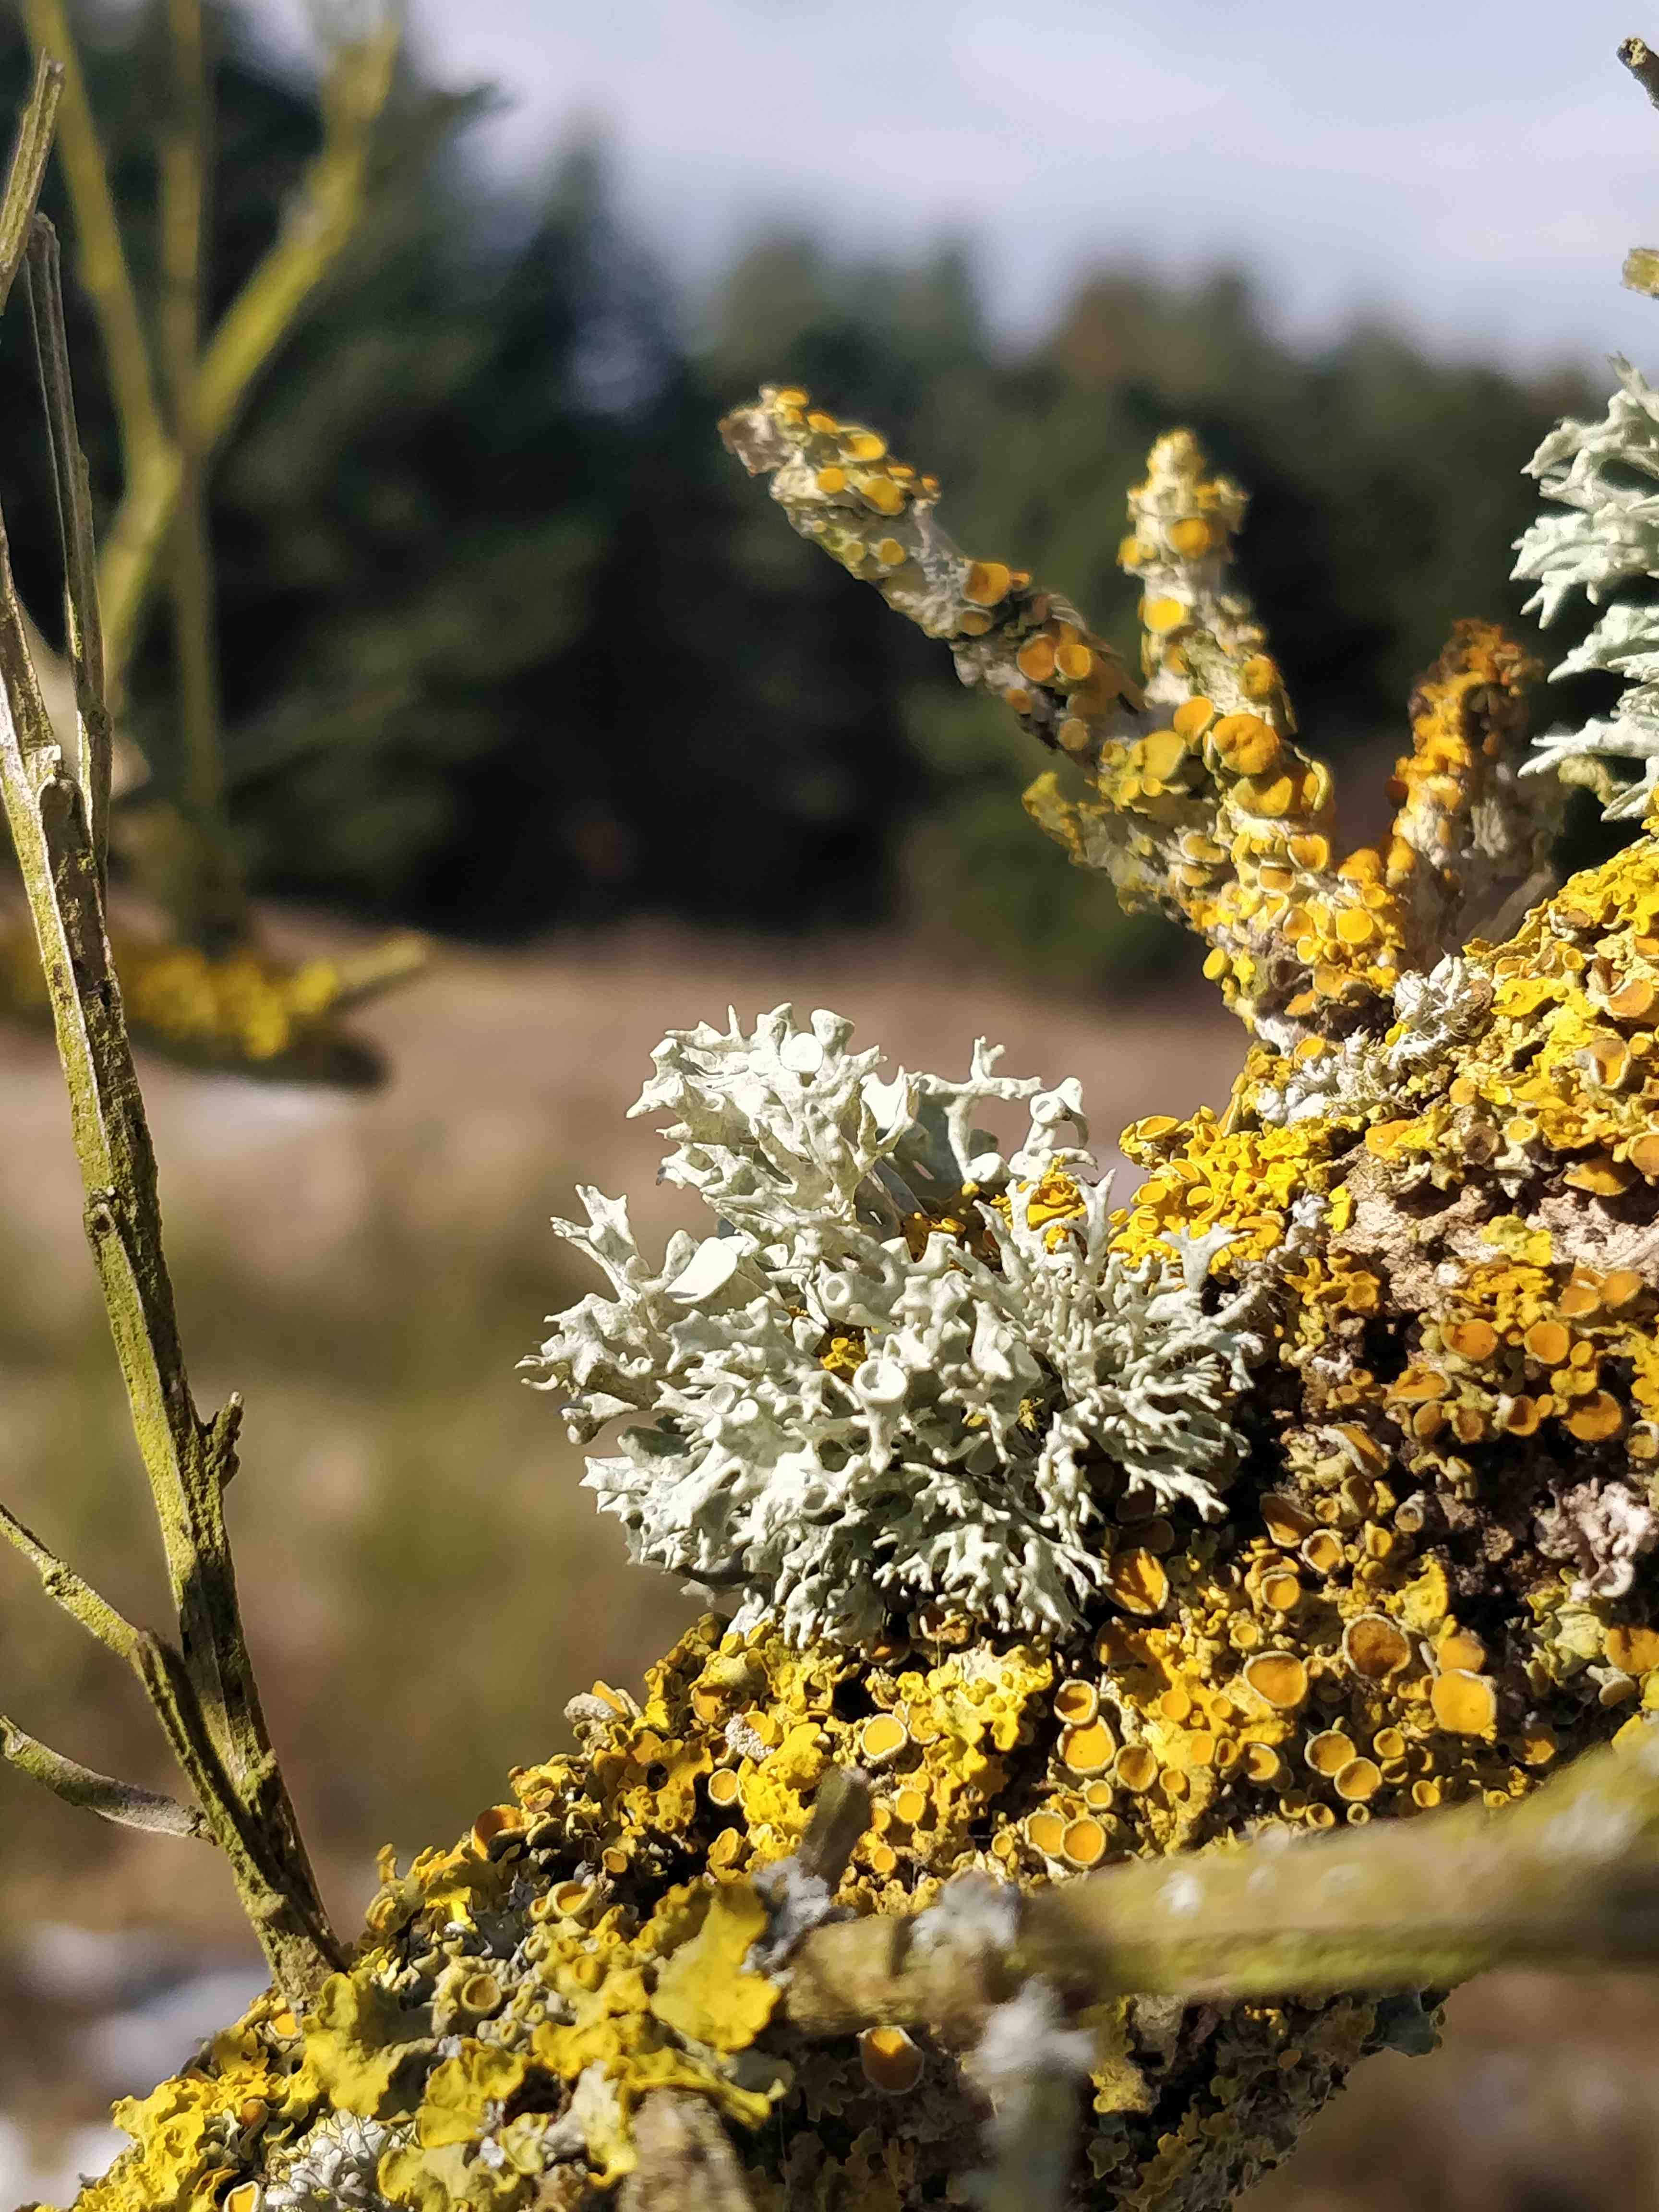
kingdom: Fungi
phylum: Ascomycota
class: Lecanoromycetes
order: Teloschistales
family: Teloschistaceae
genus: Xanthoria
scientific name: Xanthoria parietina
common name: almindelig væggelav
